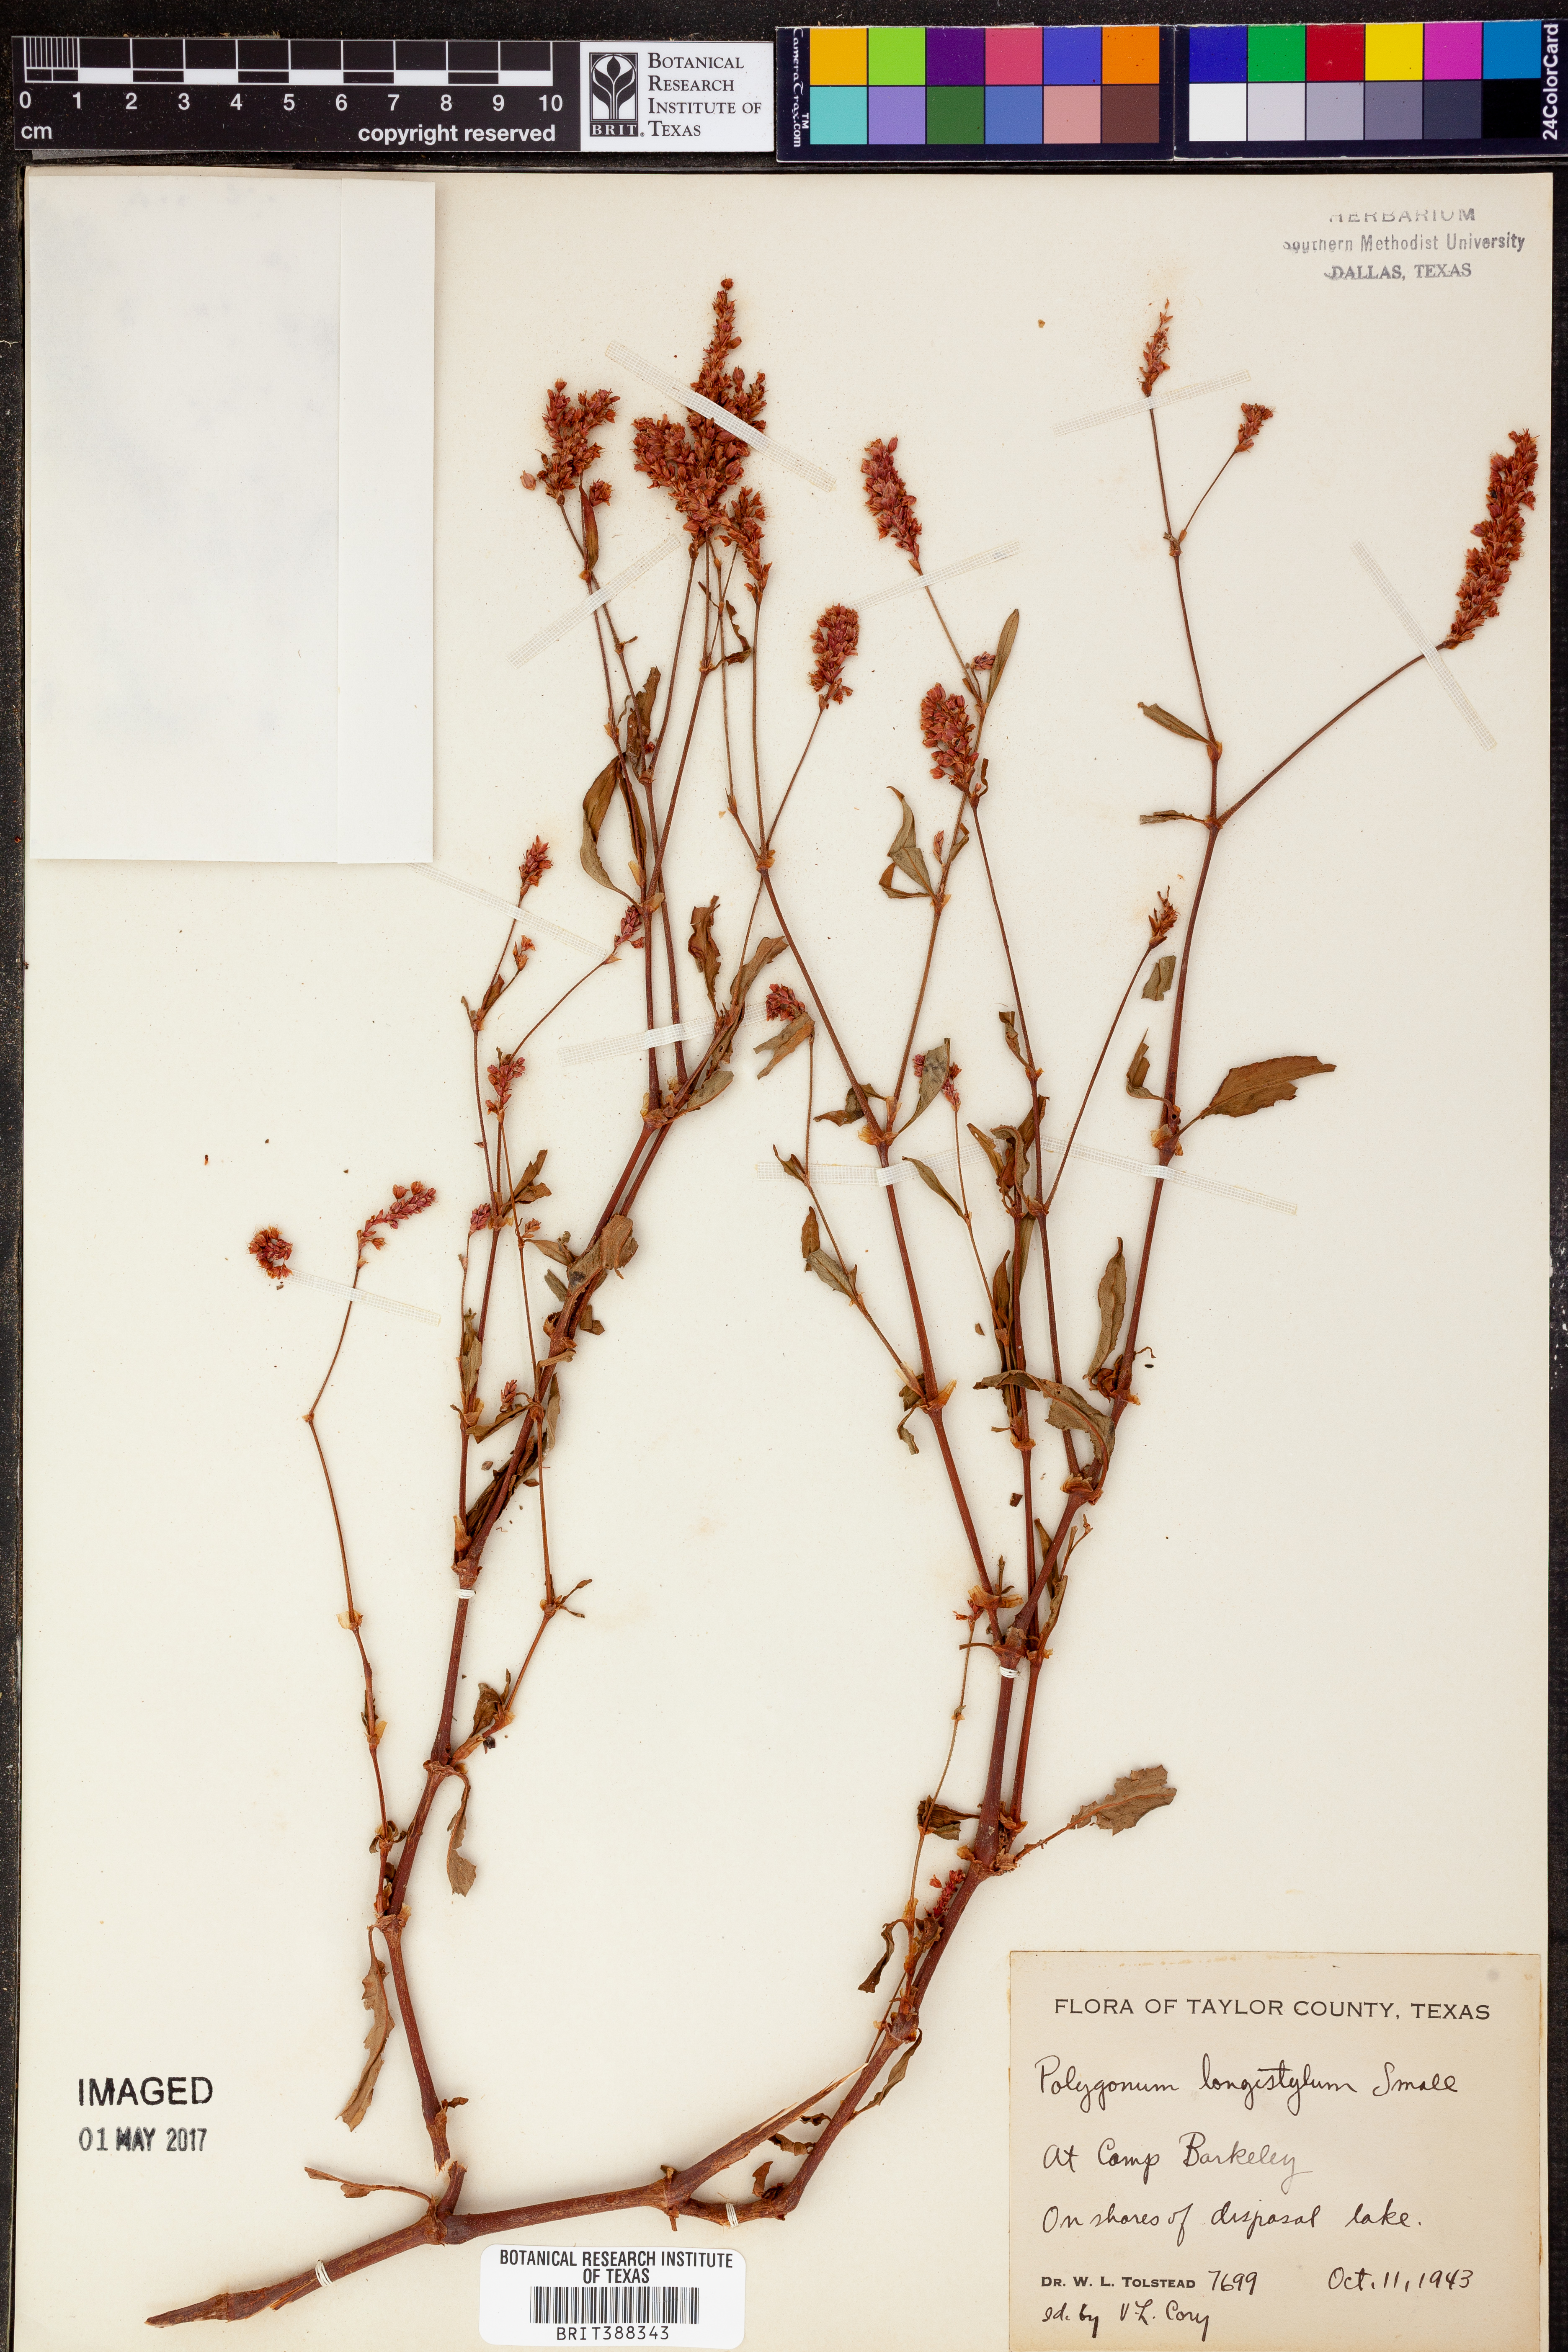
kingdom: Plantae
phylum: Tracheophyta
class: Magnoliopsida
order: Caryophyllales
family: Polygonaceae
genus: Persicaria
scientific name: Persicaria bicornis
